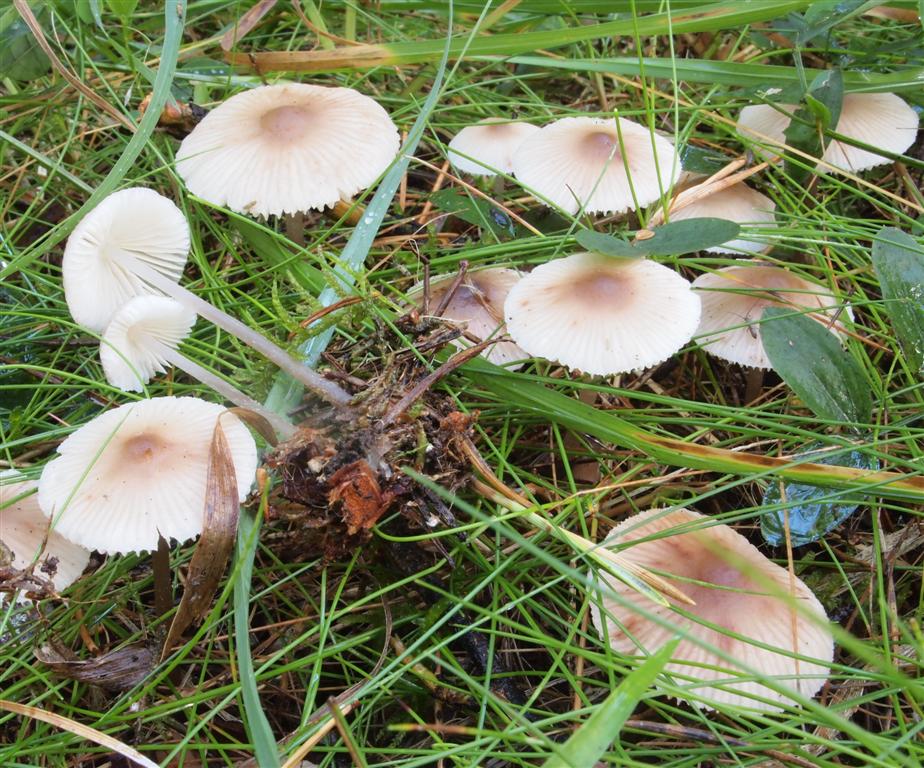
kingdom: Fungi
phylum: Basidiomycota
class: Agaricomycetes
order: Agaricales
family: Mycenaceae
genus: Mycena
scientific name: Mycena zephirus
